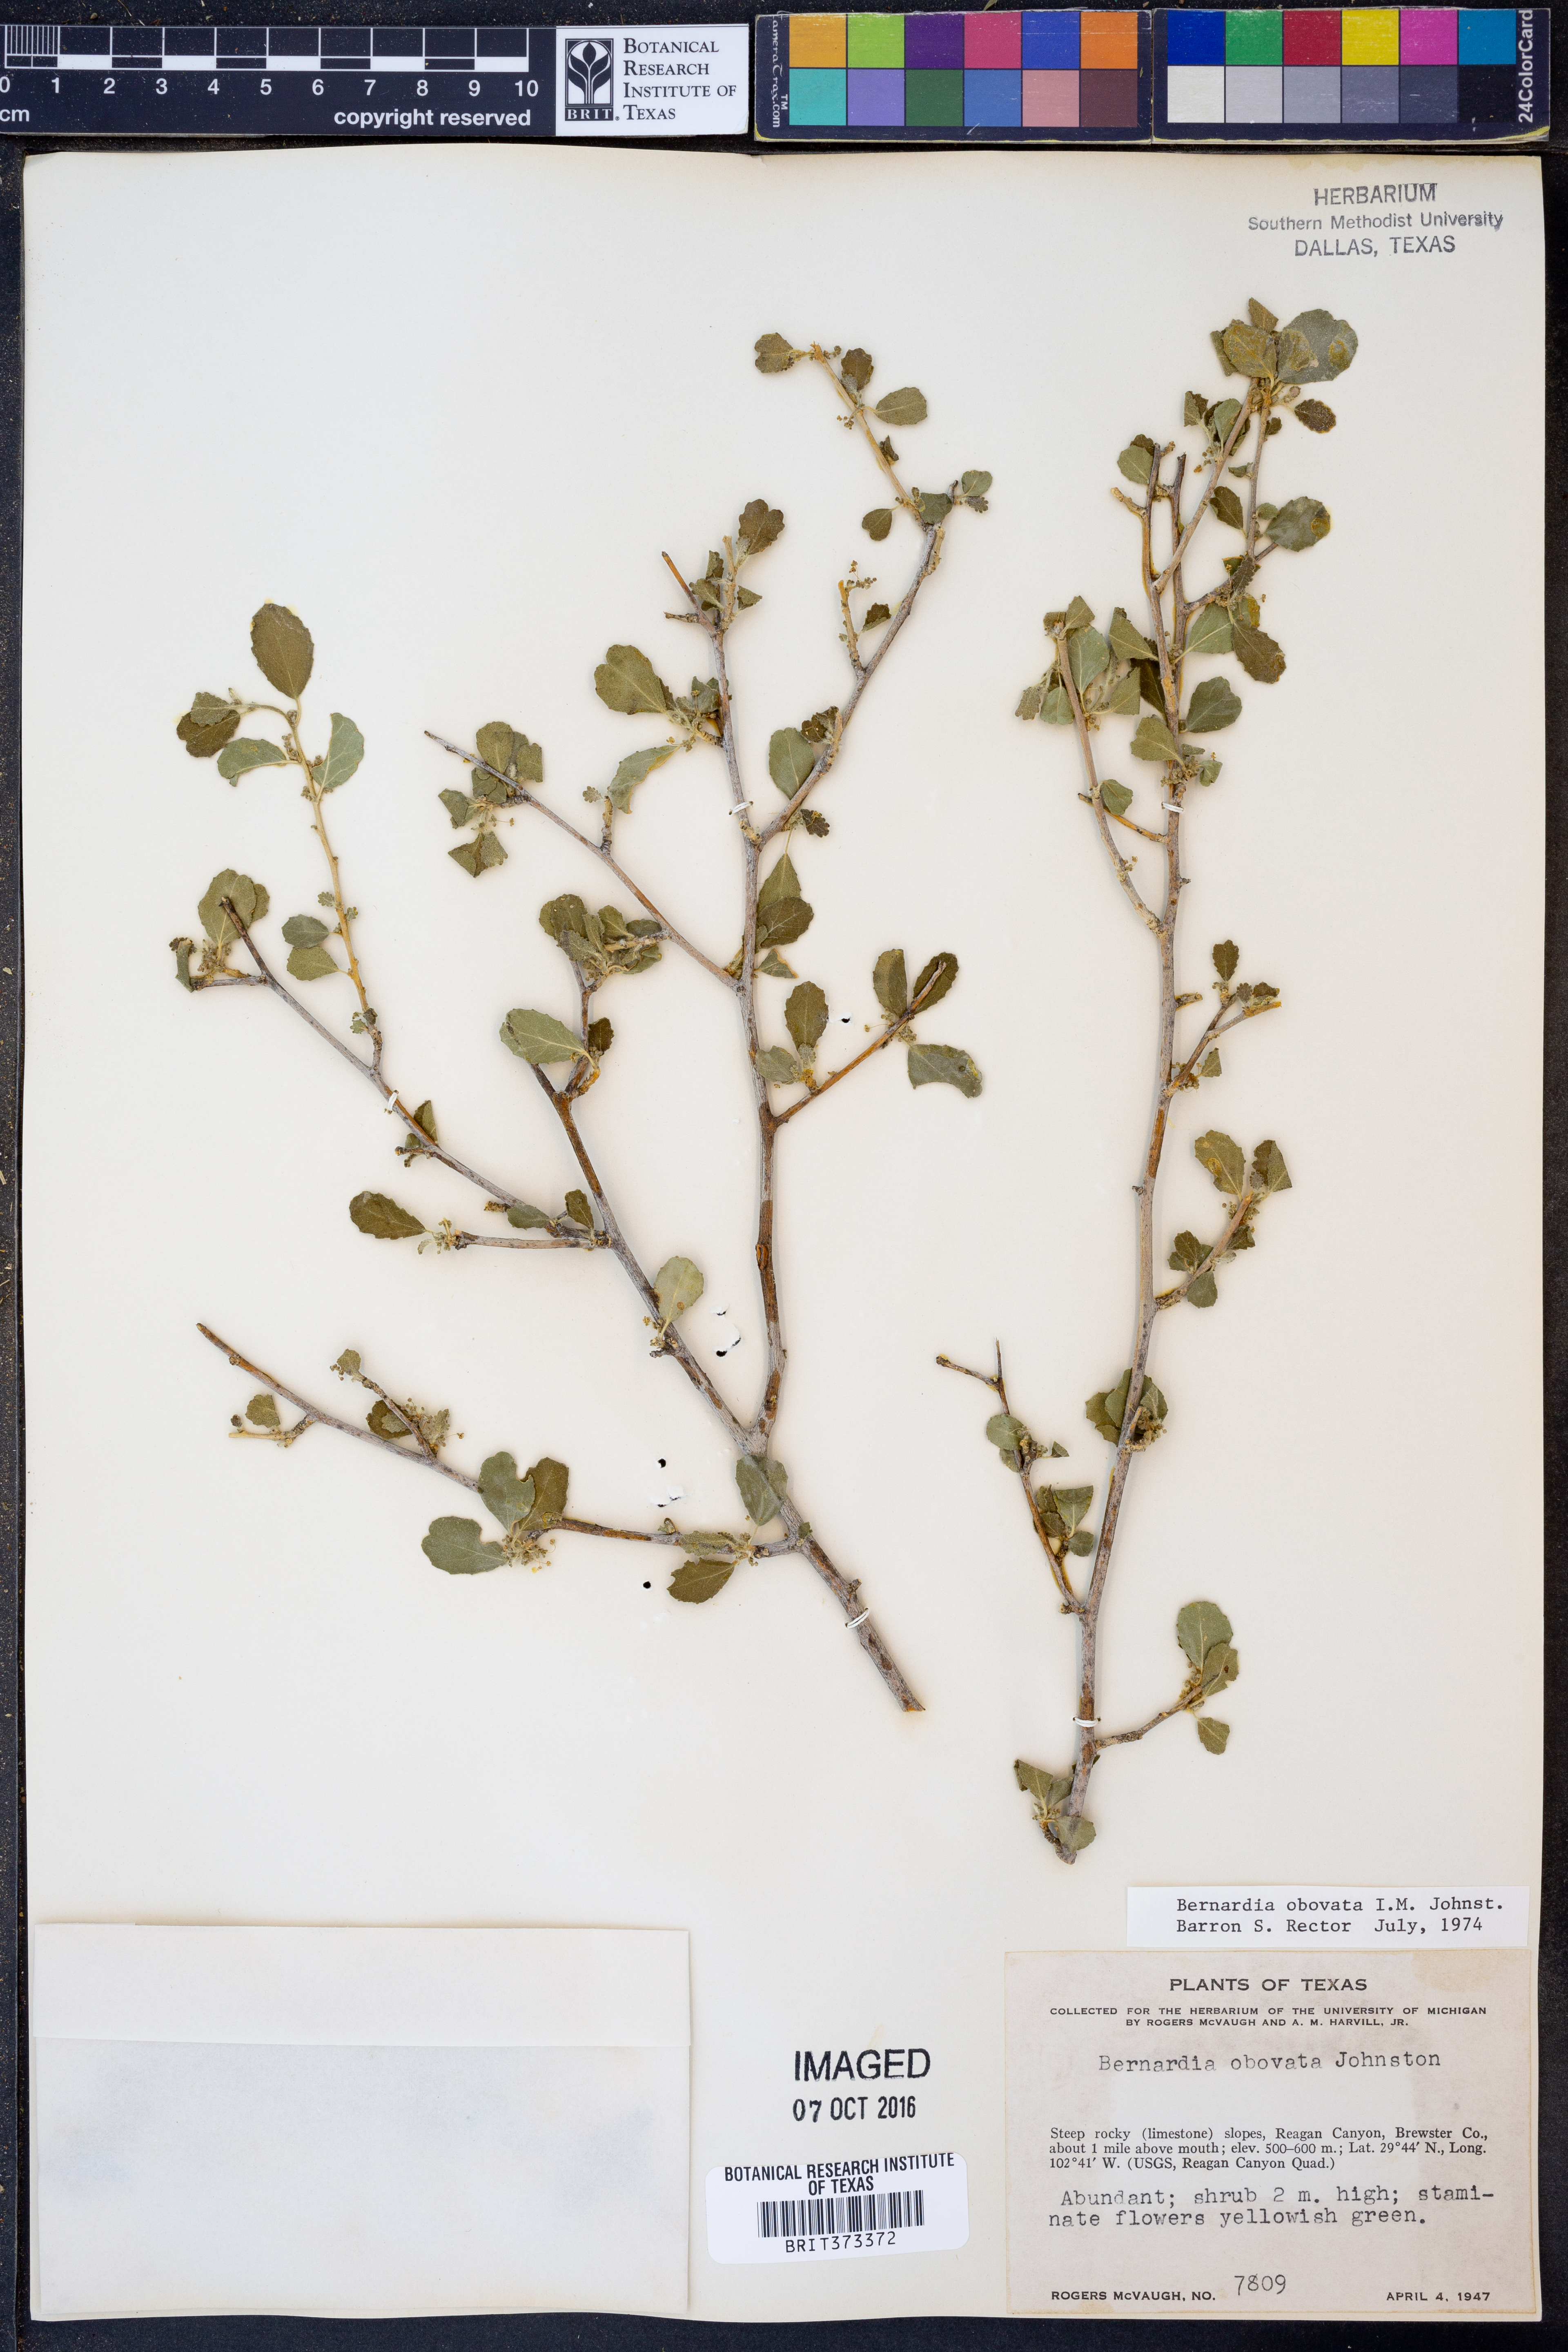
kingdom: Plantae
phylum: Tracheophyta
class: Magnoliopsida
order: Malpighiales
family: Euphorbiaceae
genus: Bernardia
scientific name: Bernardia obovata
